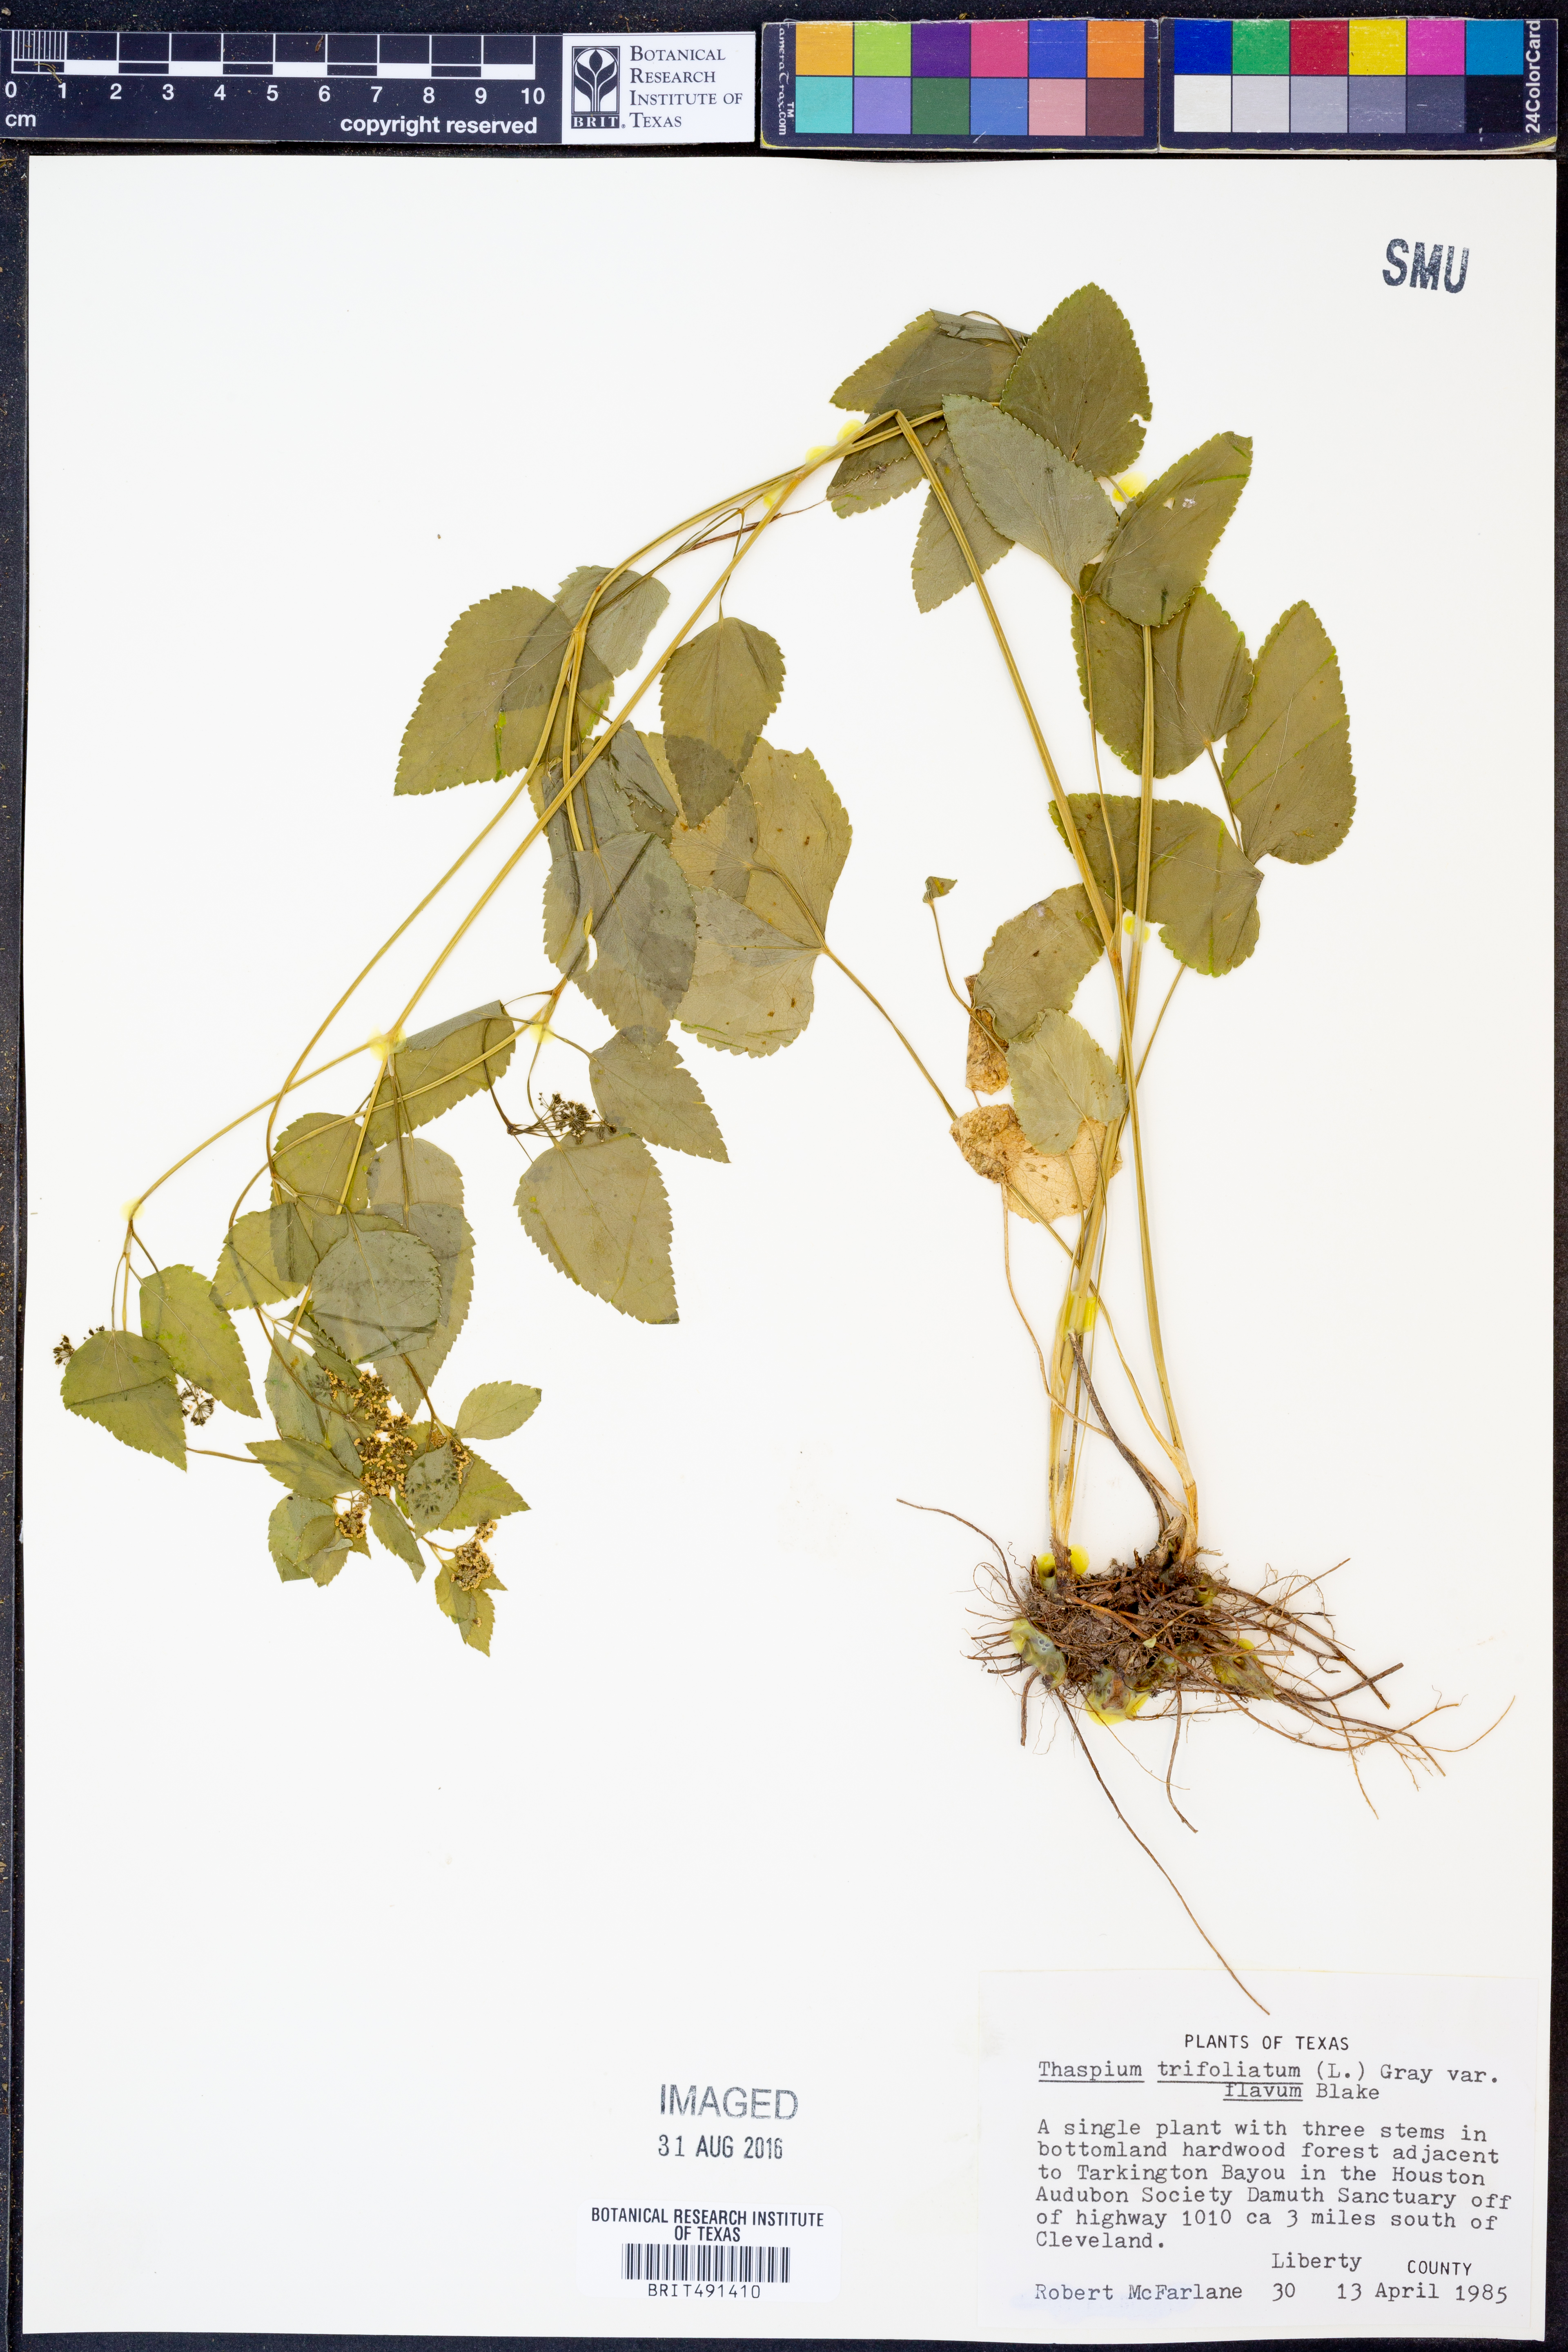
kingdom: Plantae
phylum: Tracheophyta
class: Magnoliopsida
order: Apiales
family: Apiaceae
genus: Thaspium
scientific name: Thaspium trifoliatum
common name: Purple meadow-parsnip
